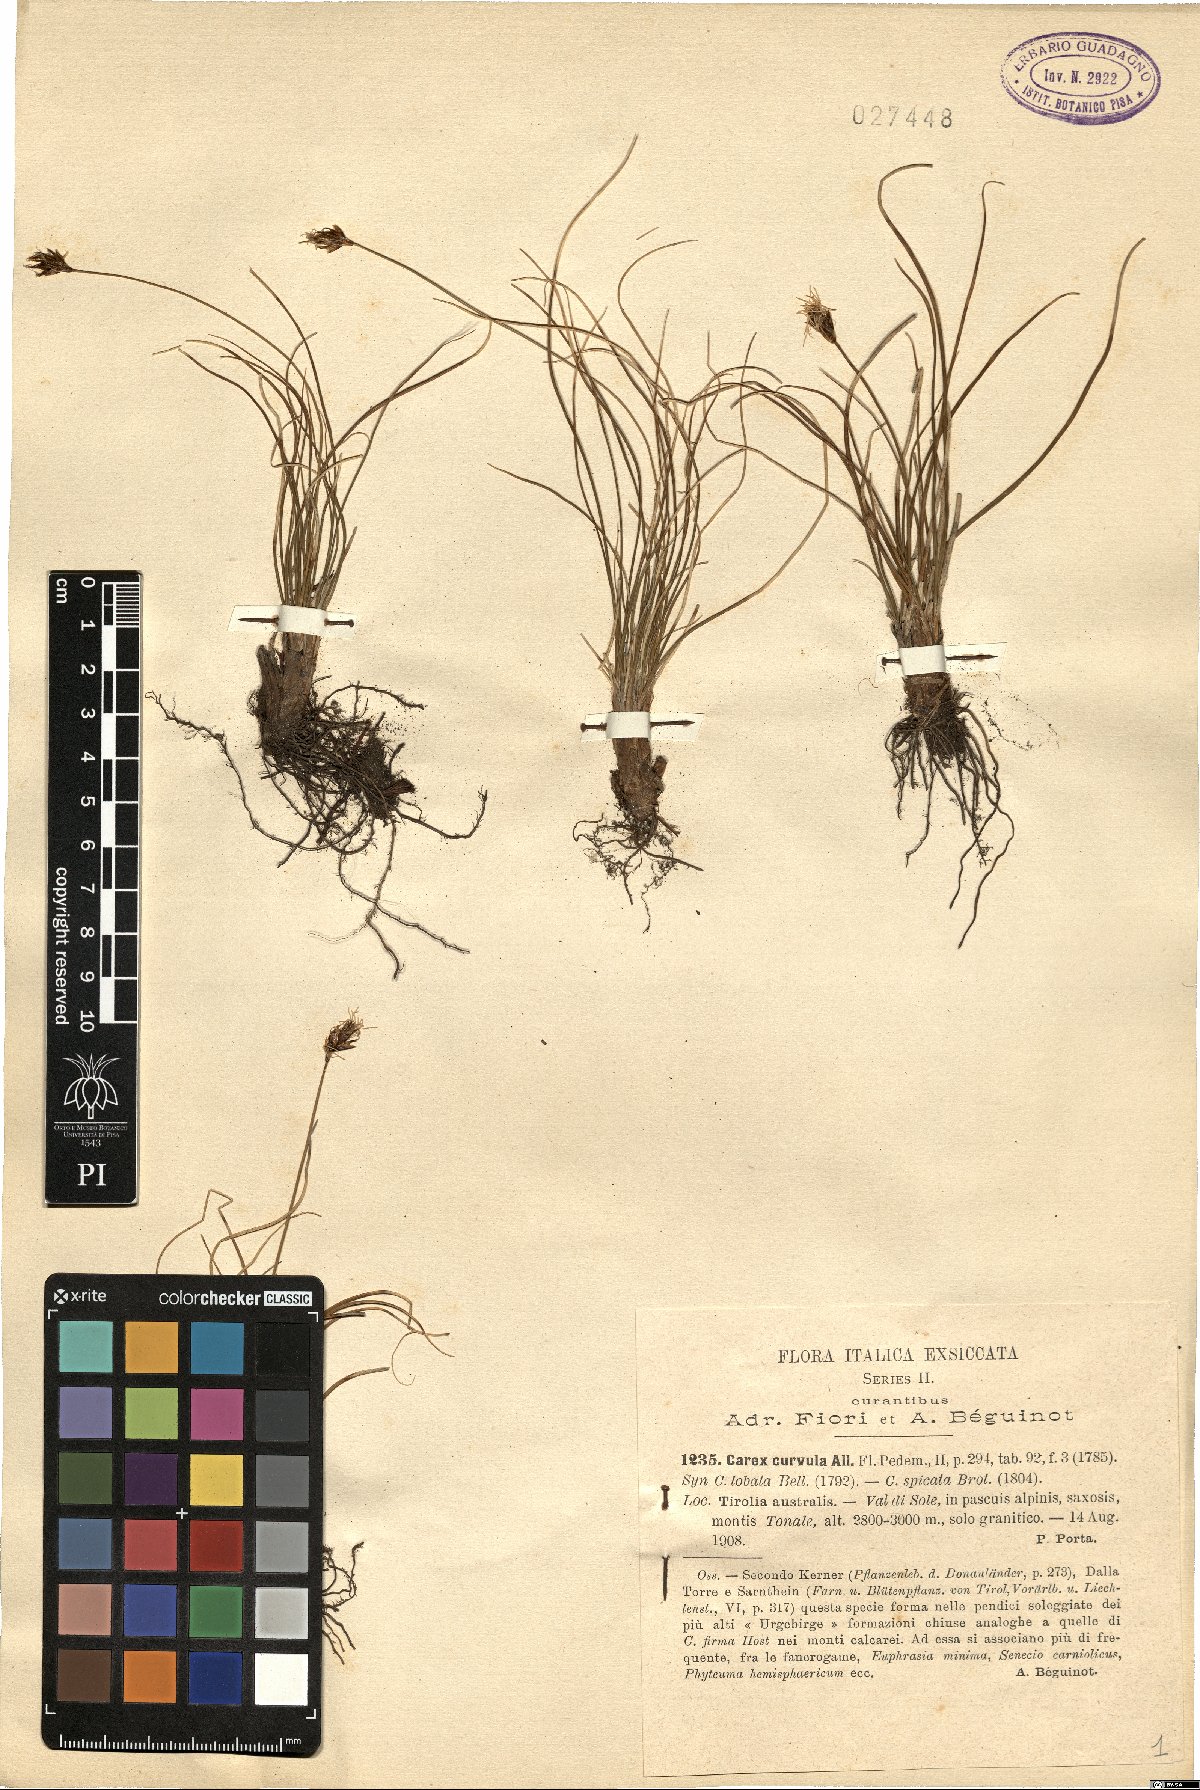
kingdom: Plantae
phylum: Tracheophyta
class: Liliopsida
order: Poales
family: Cyperaceae
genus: Carex
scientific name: Carex curvula
